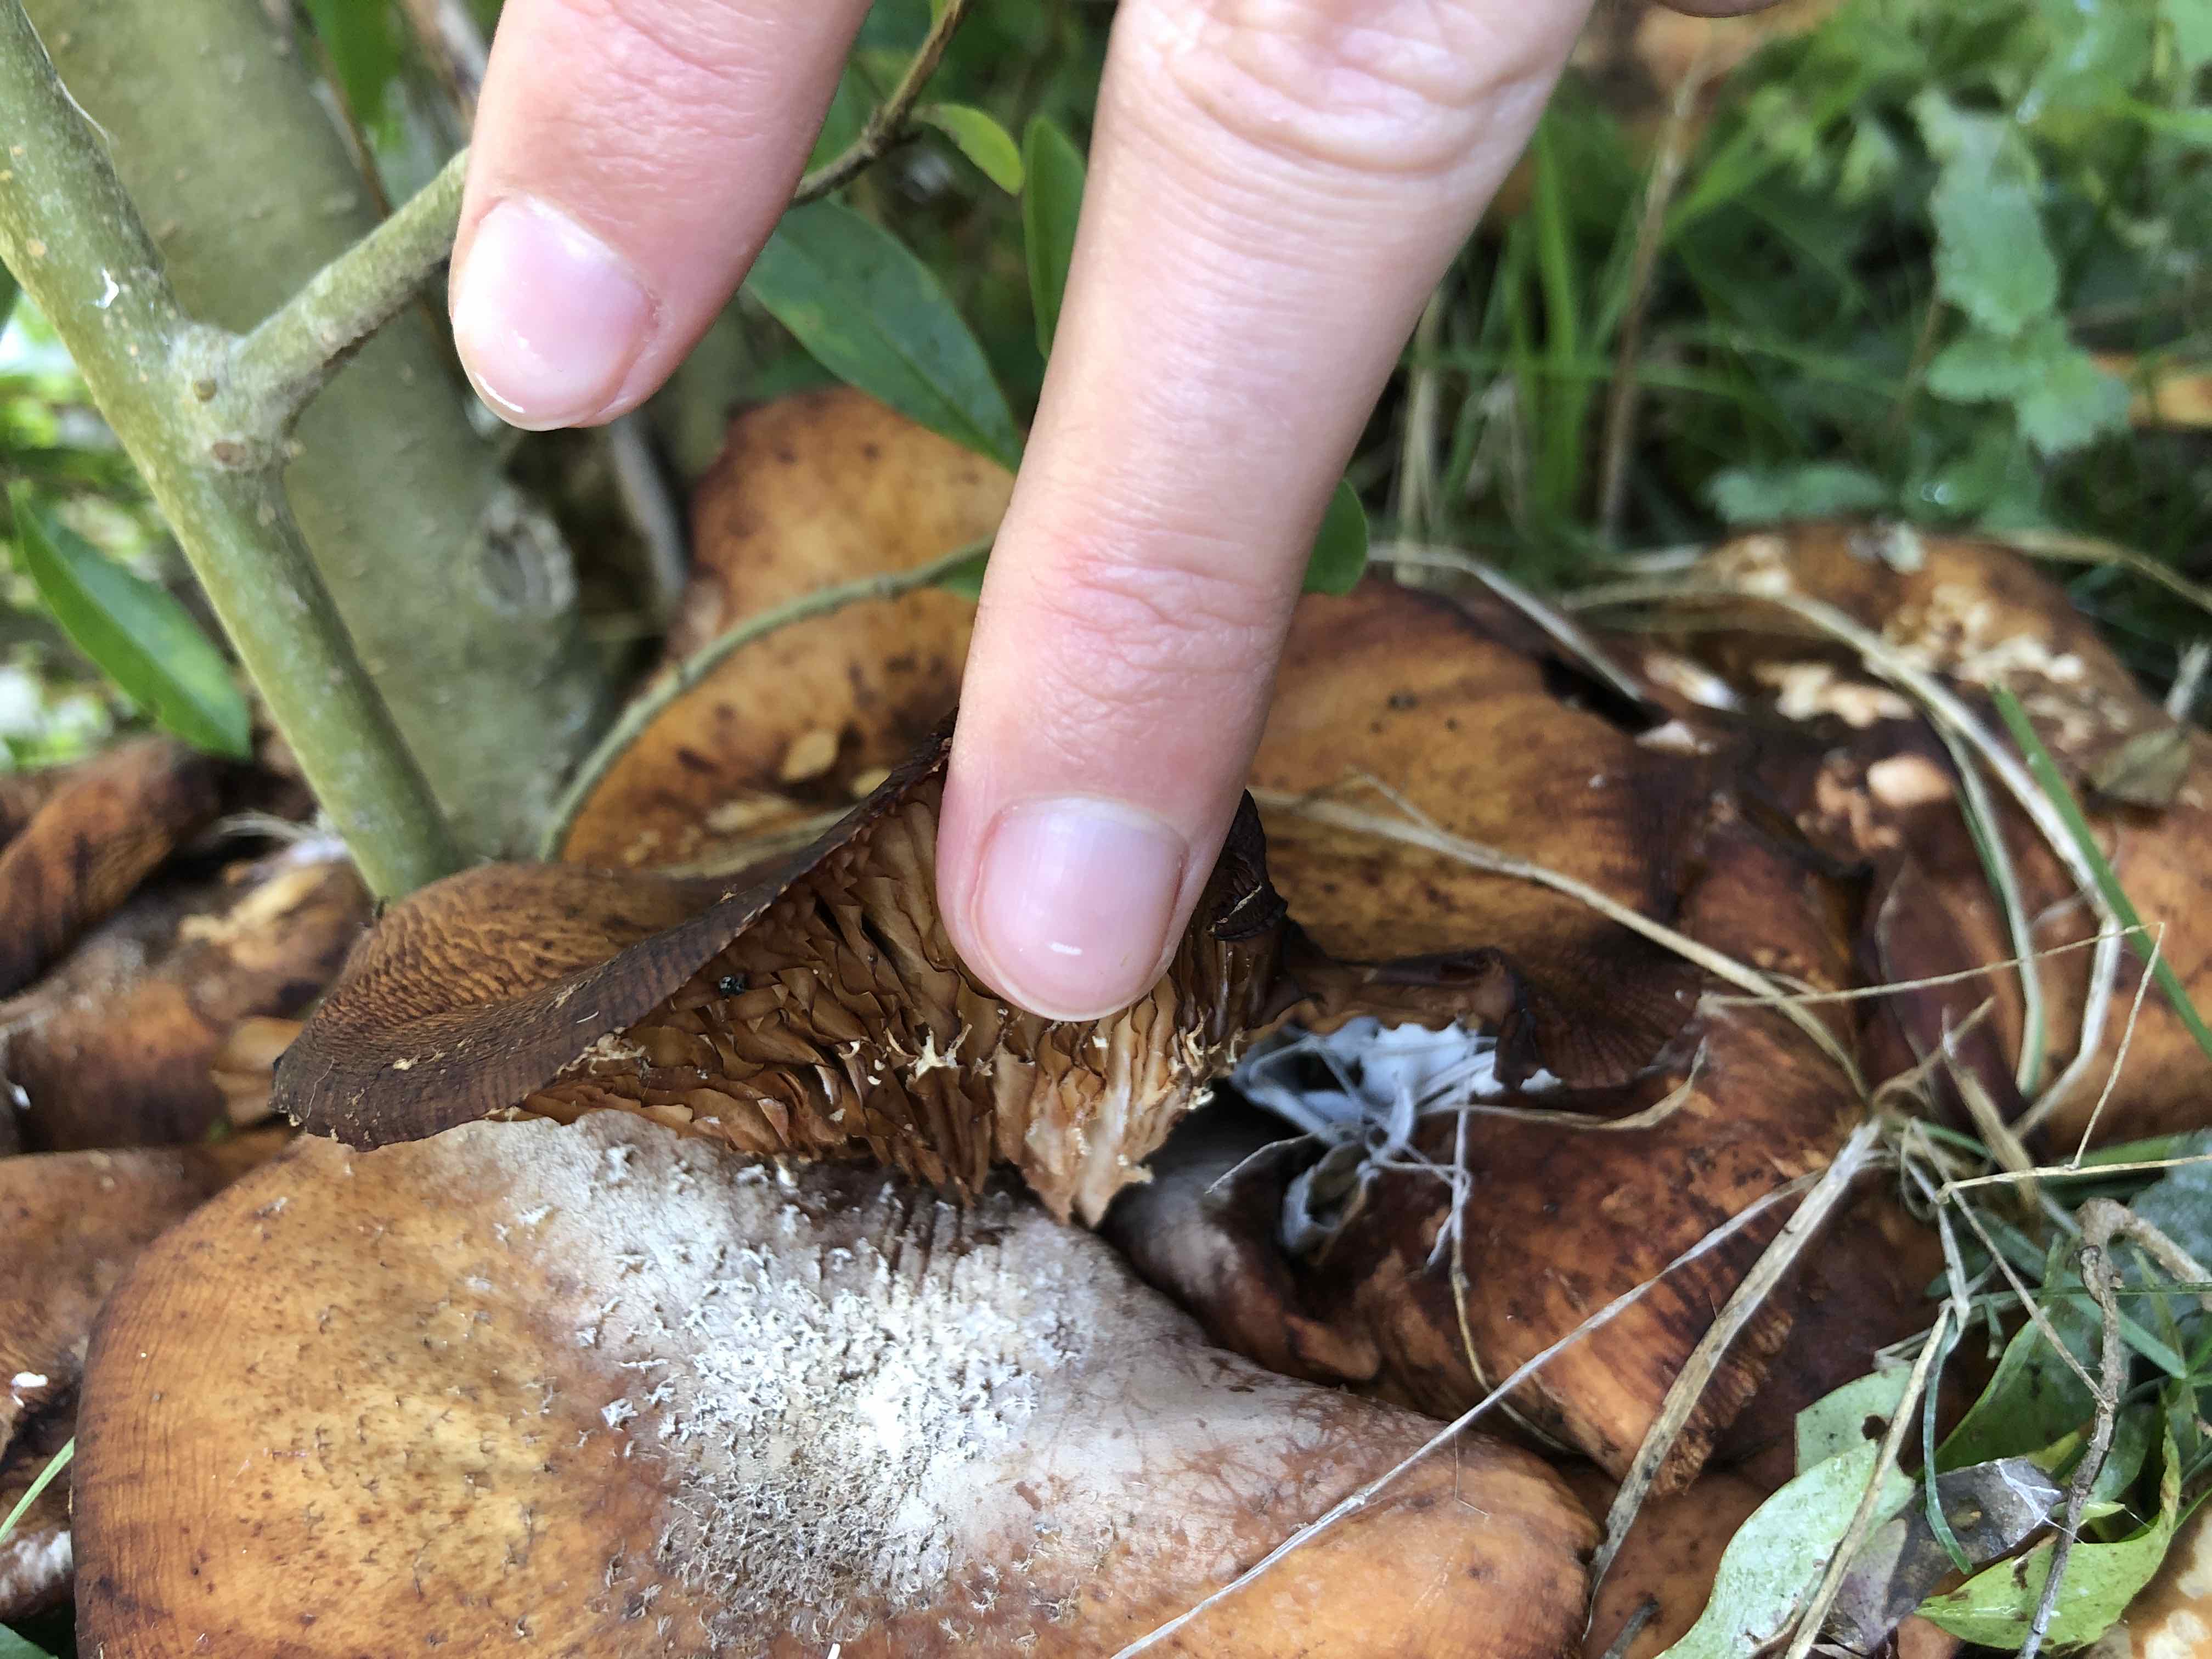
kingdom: Fungi
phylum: Basidiomycota
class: Agaricomycetes
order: Agaricales
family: Physalacriaceae
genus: Armillaria
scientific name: Armillaria
